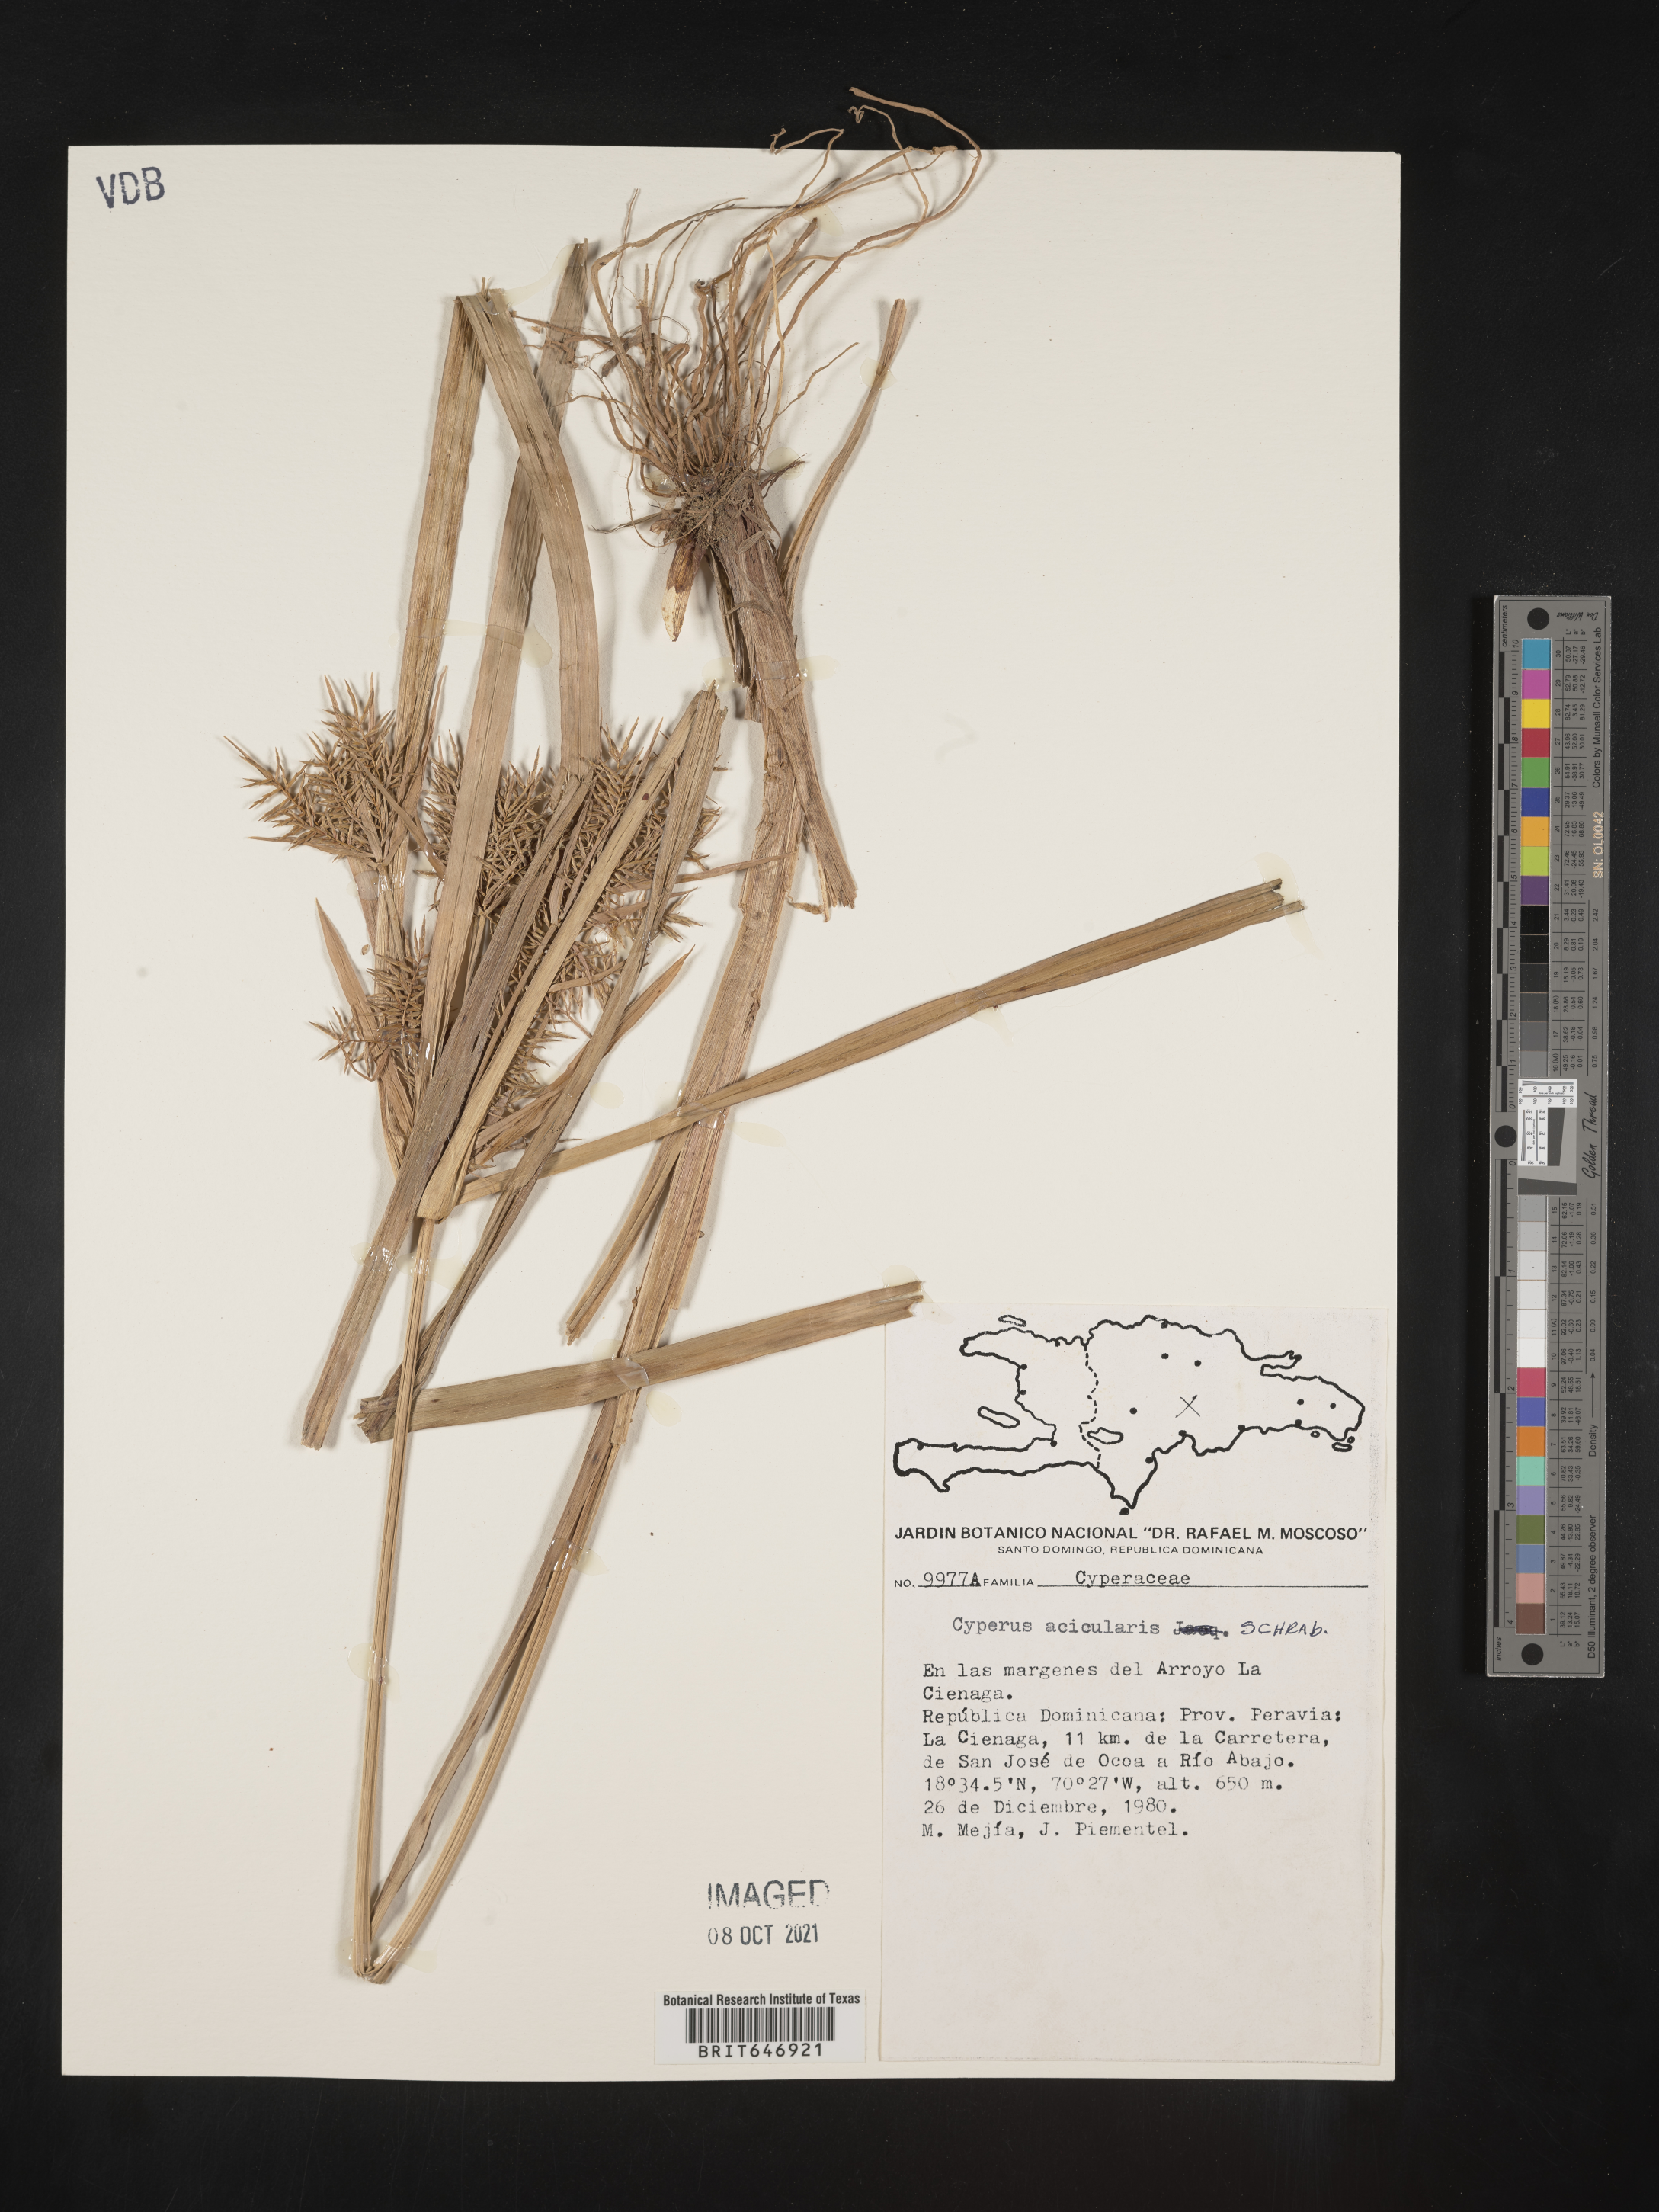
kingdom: Plantae
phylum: Tracheophyta
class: Liliopsida
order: Poales
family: Cyperaceae
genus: Cyperus
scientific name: Cyperus strongii
